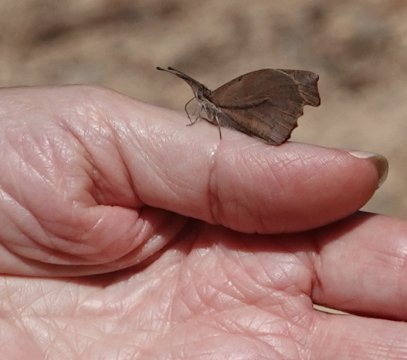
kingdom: Animalia
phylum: Arthropoda
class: Insecta
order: Lepidoptera
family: Nymphalidae
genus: Libytheana
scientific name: Libytheana carinenta
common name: American Snout
